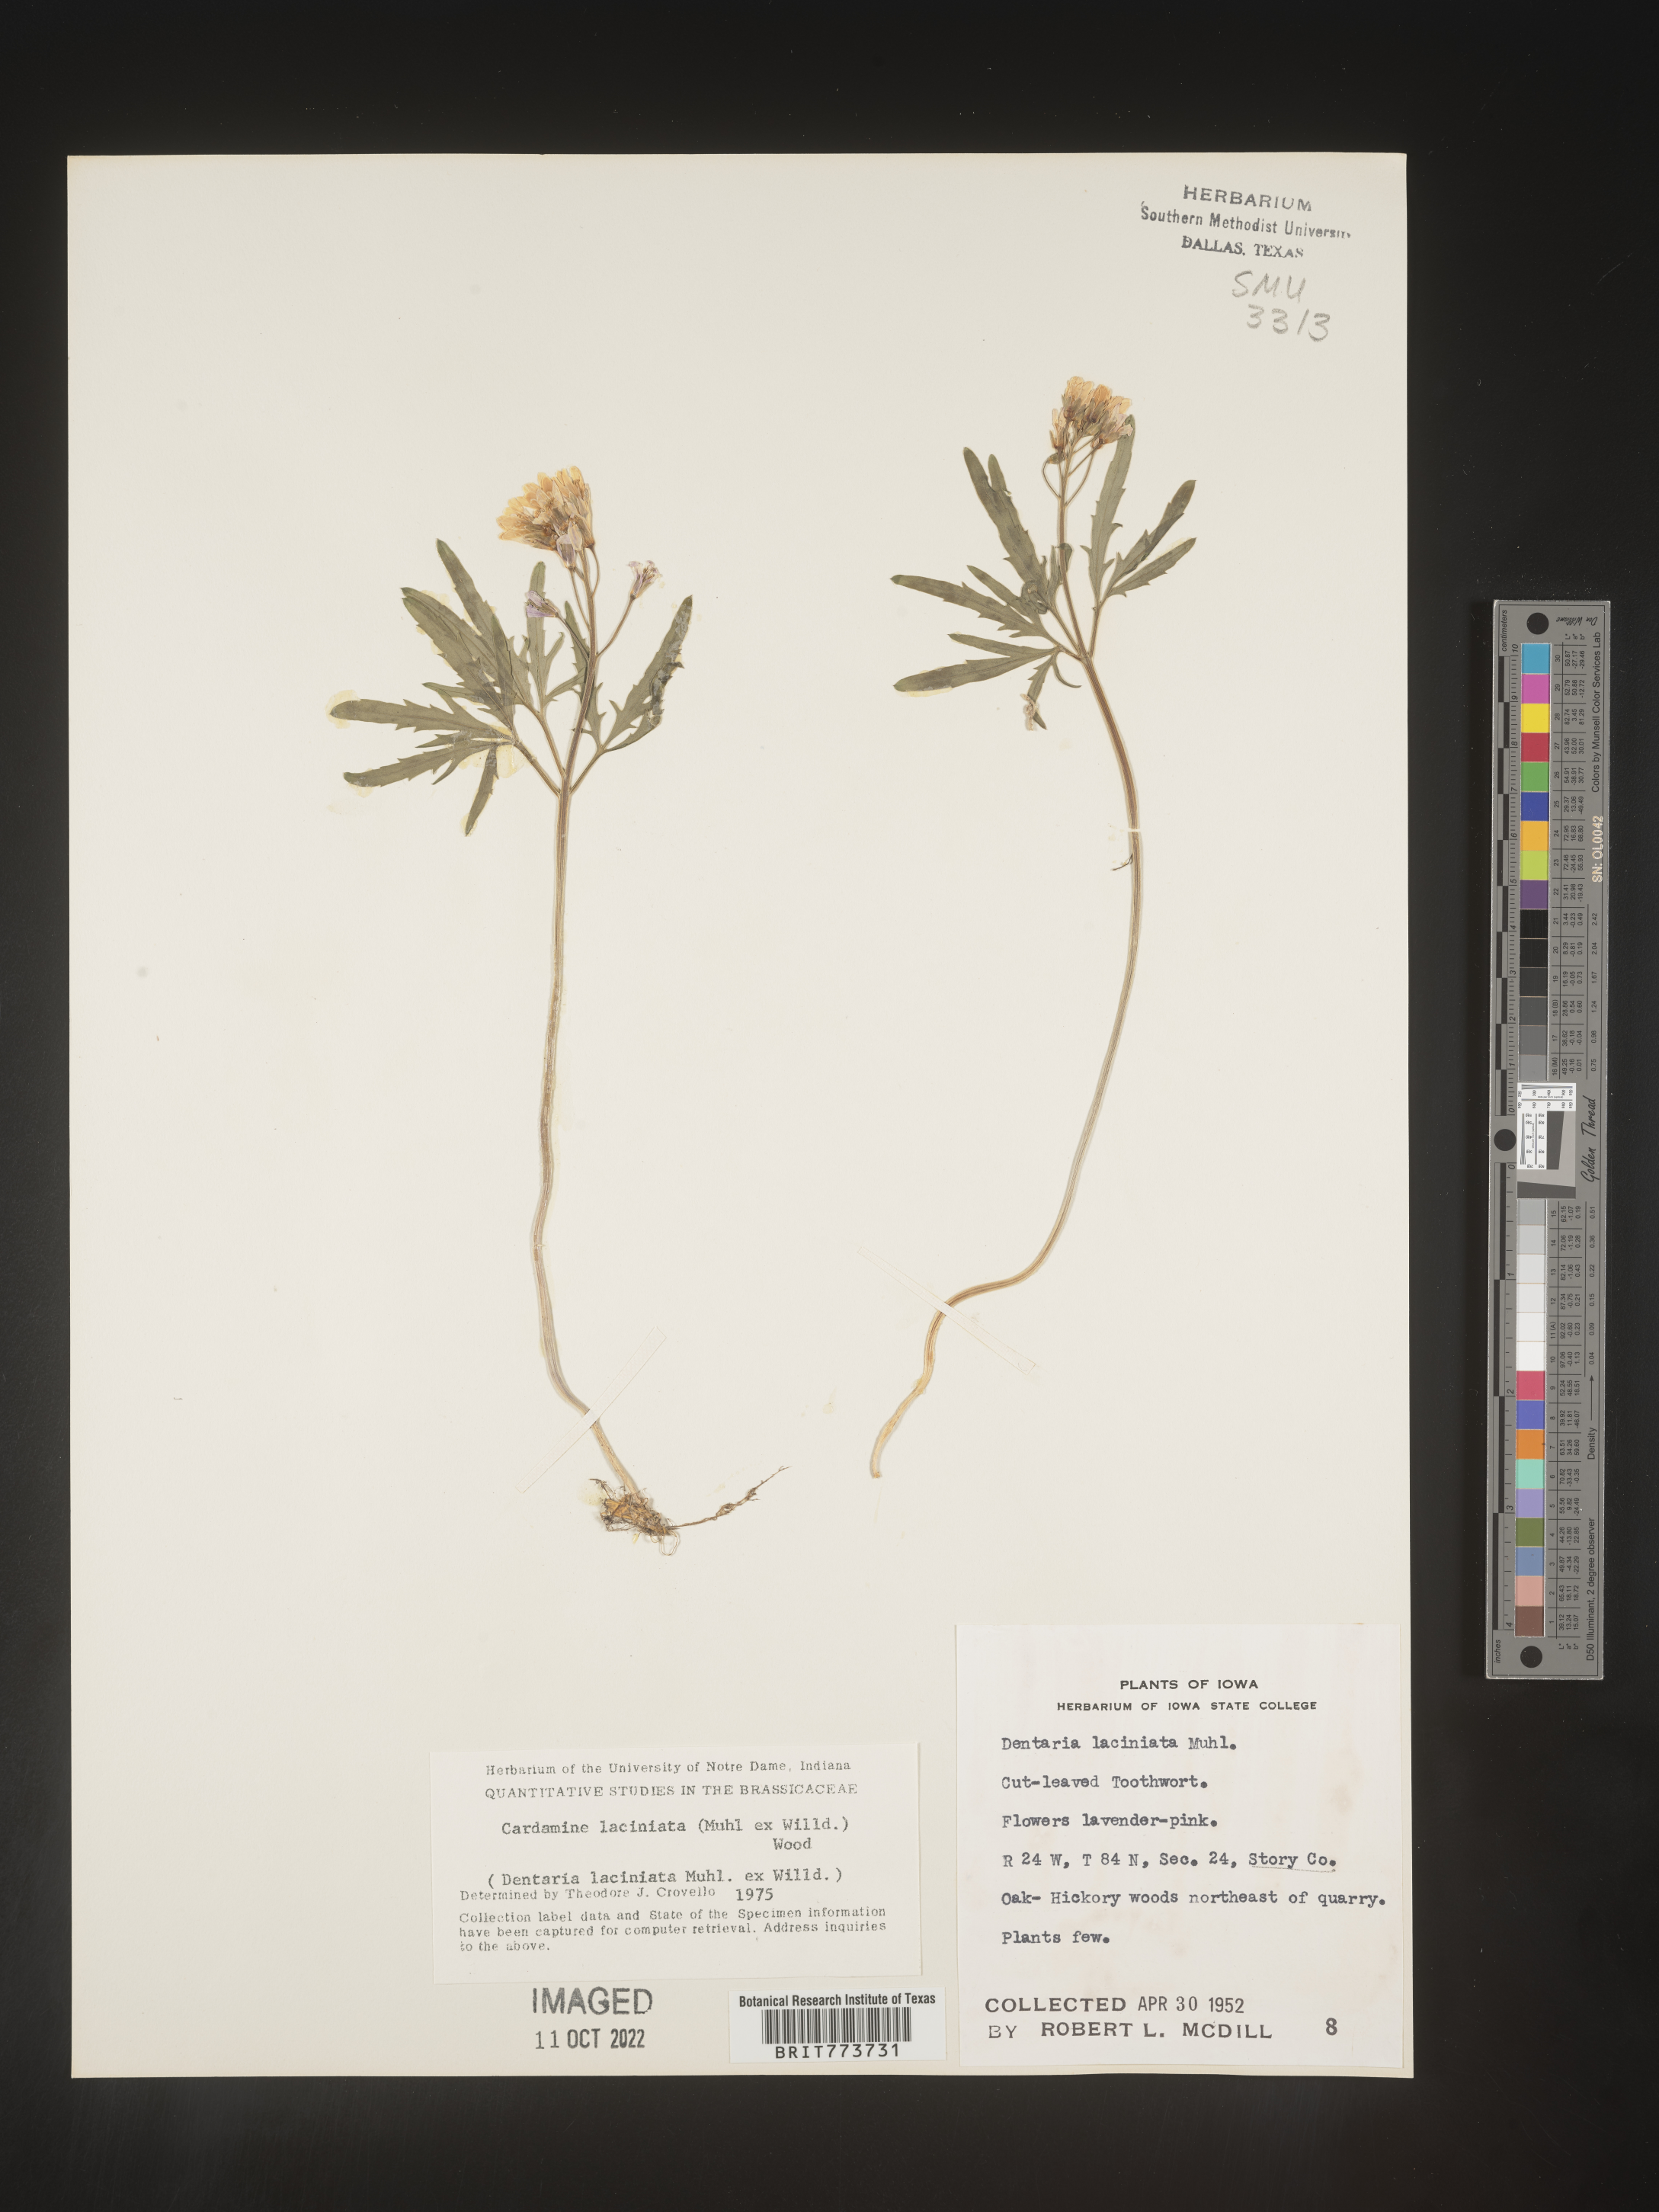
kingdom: Plantae
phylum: Tracheophyta
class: Magnoliopsida
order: Brassicales
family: Brassicaceae
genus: Rorippa
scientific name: Rorippa laciniata
